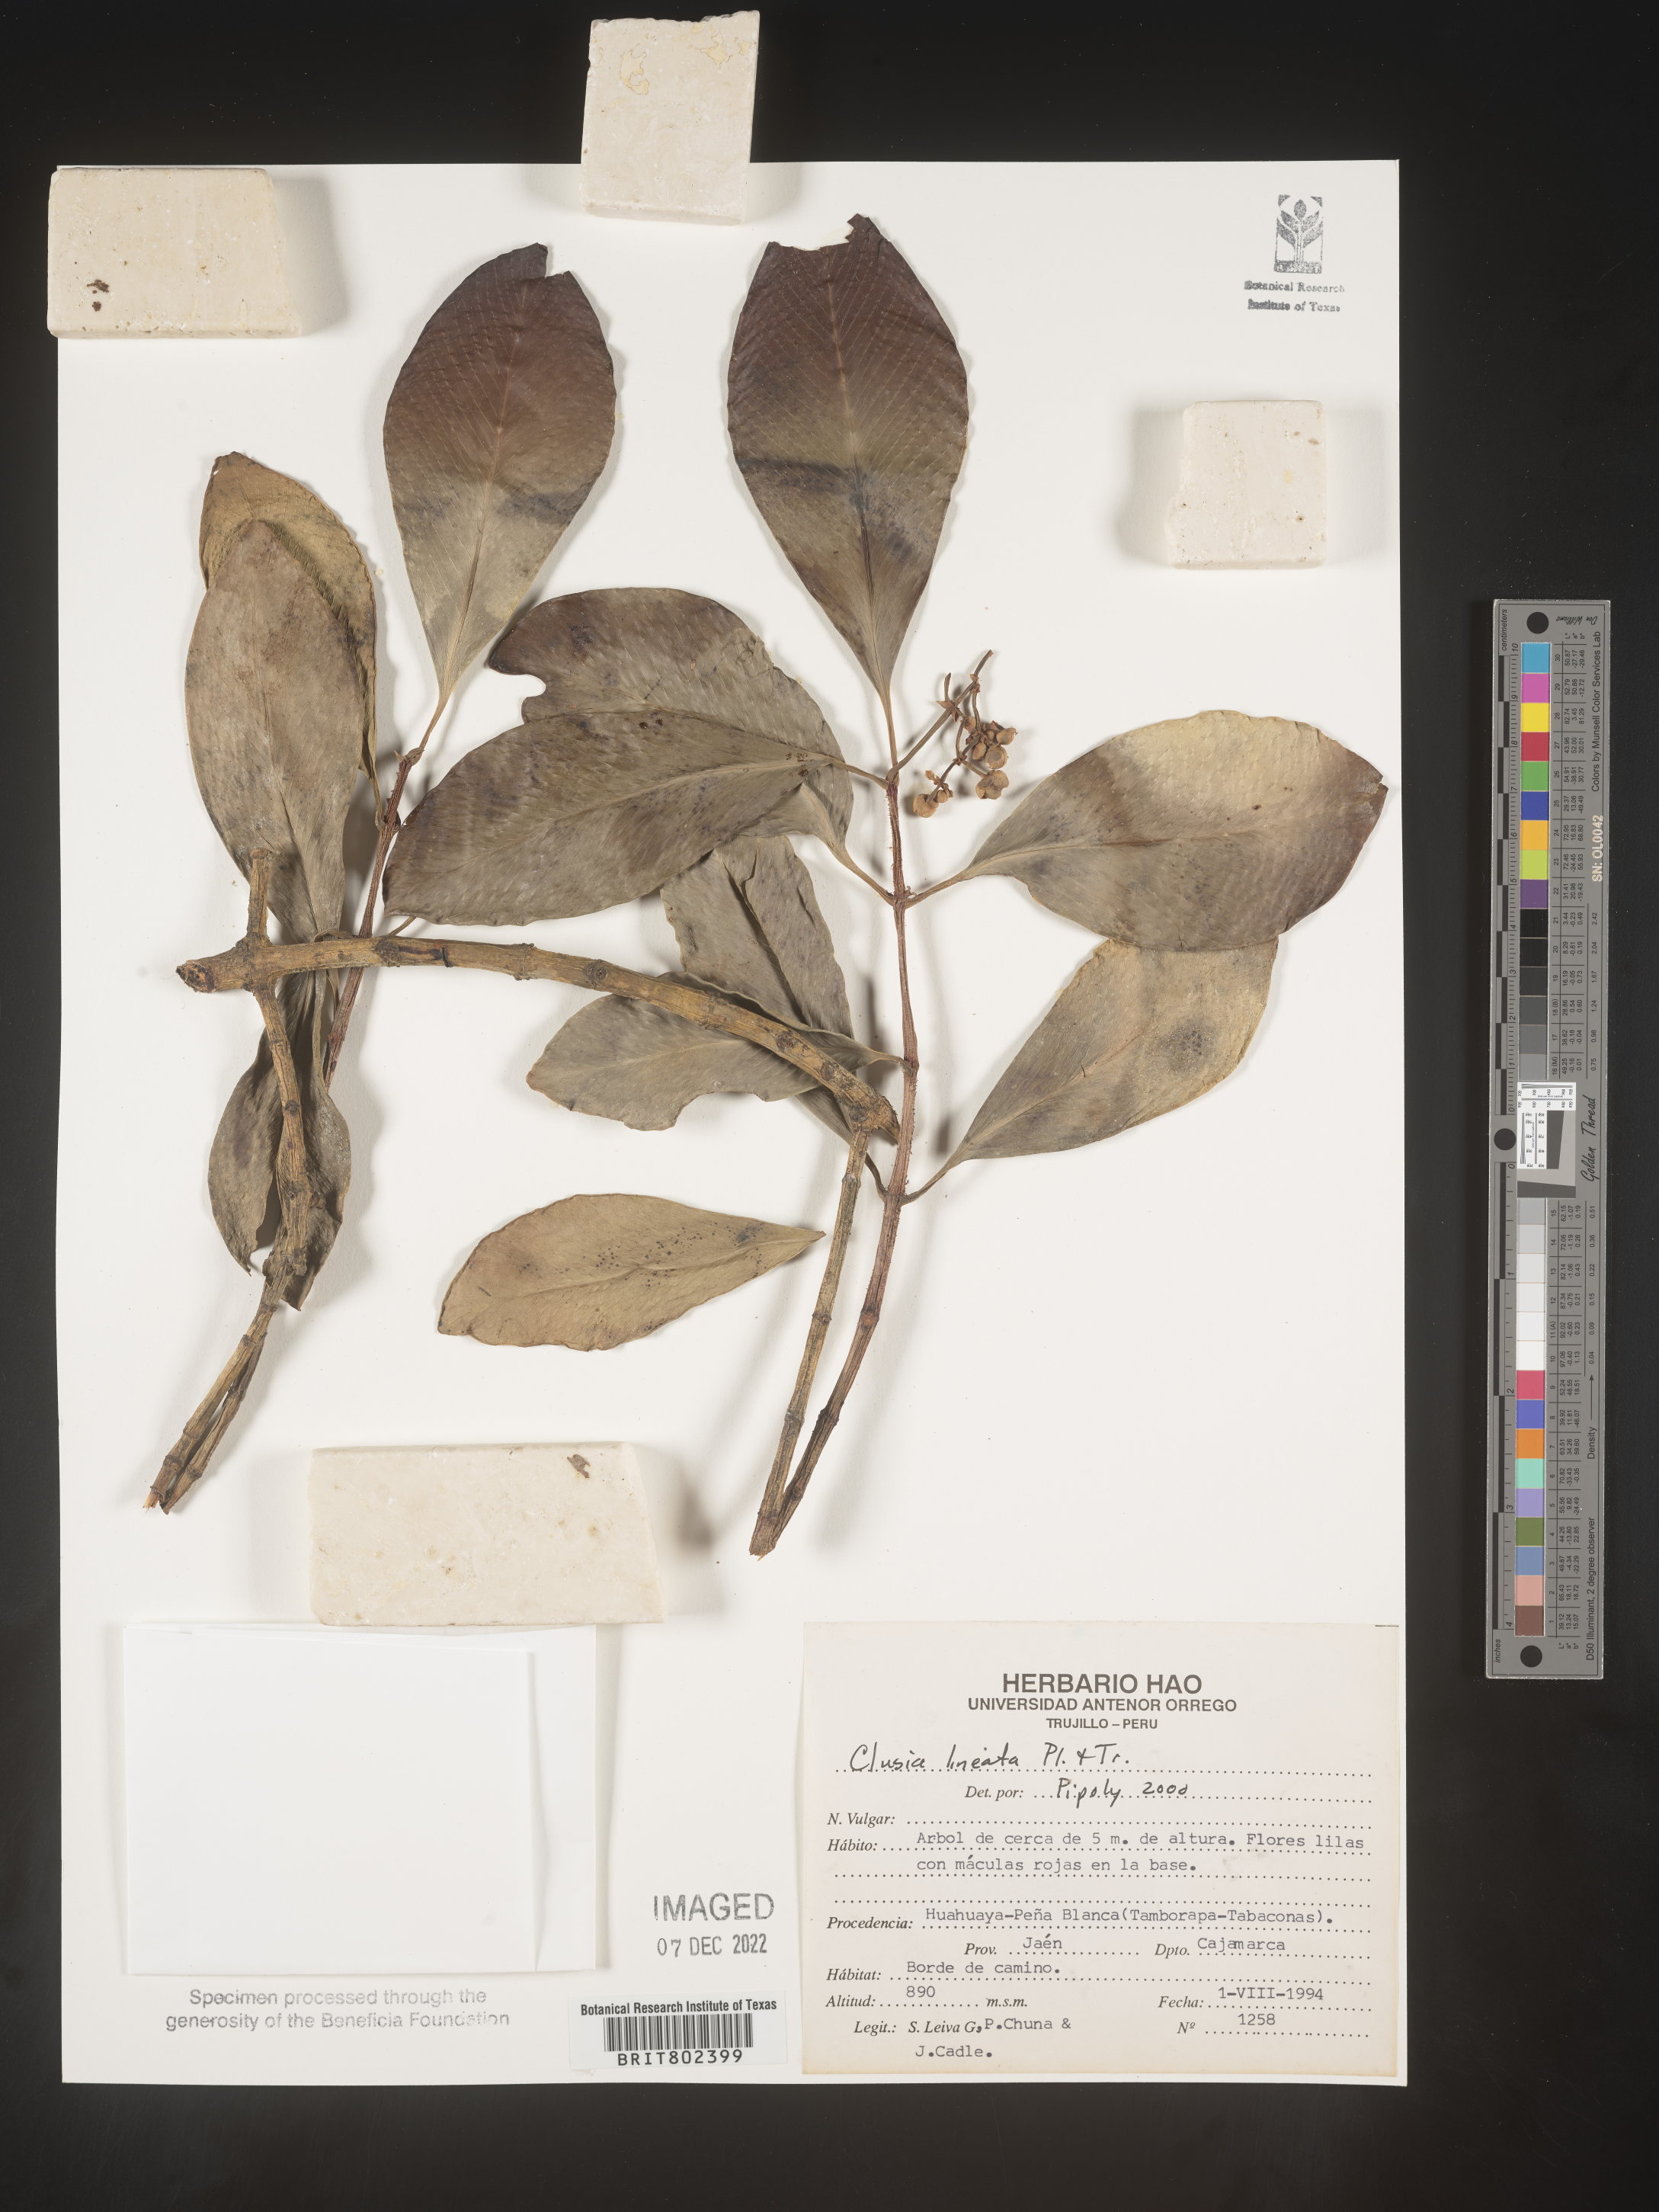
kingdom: Plantae
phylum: Tracheophyta
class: Magnoliopsida
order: Malpighiales
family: Clusiaceae
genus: Clusia
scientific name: Clusia lineata
